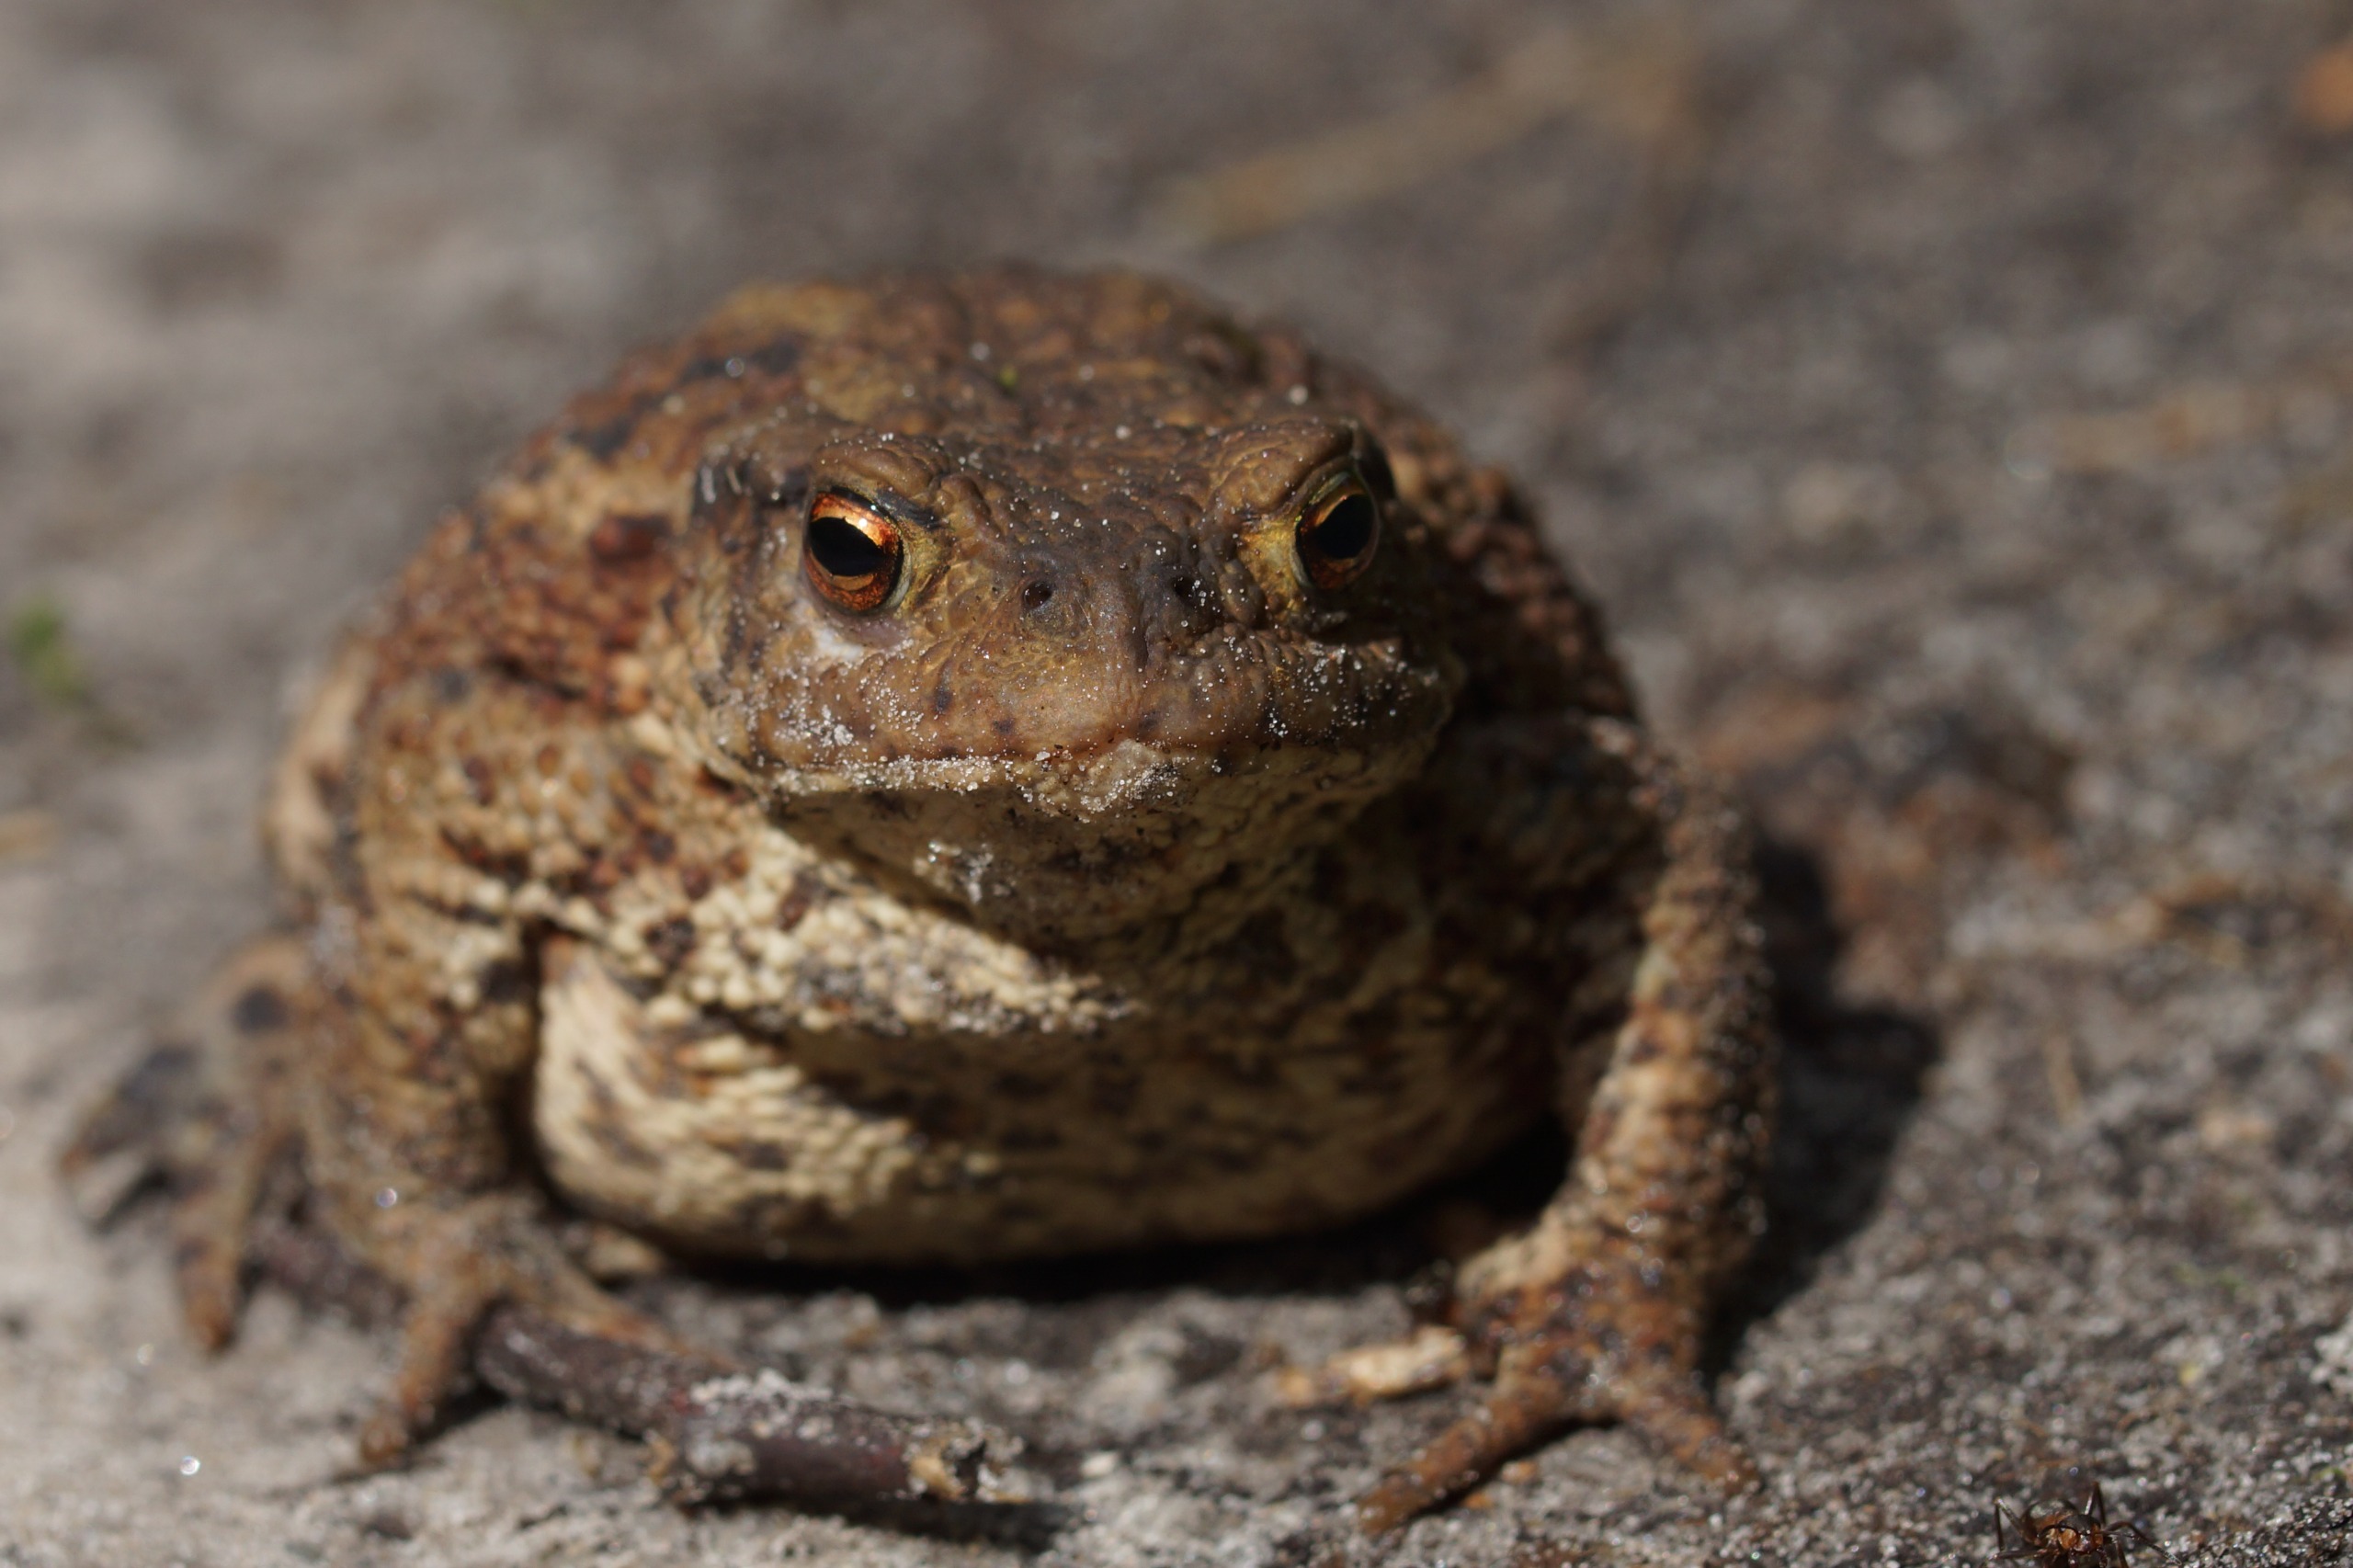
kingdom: Animalia
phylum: Chordata
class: Amphibia
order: Anura
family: Bufonidae
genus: Bufo
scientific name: Bufo bufo
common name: Skrubtudse
